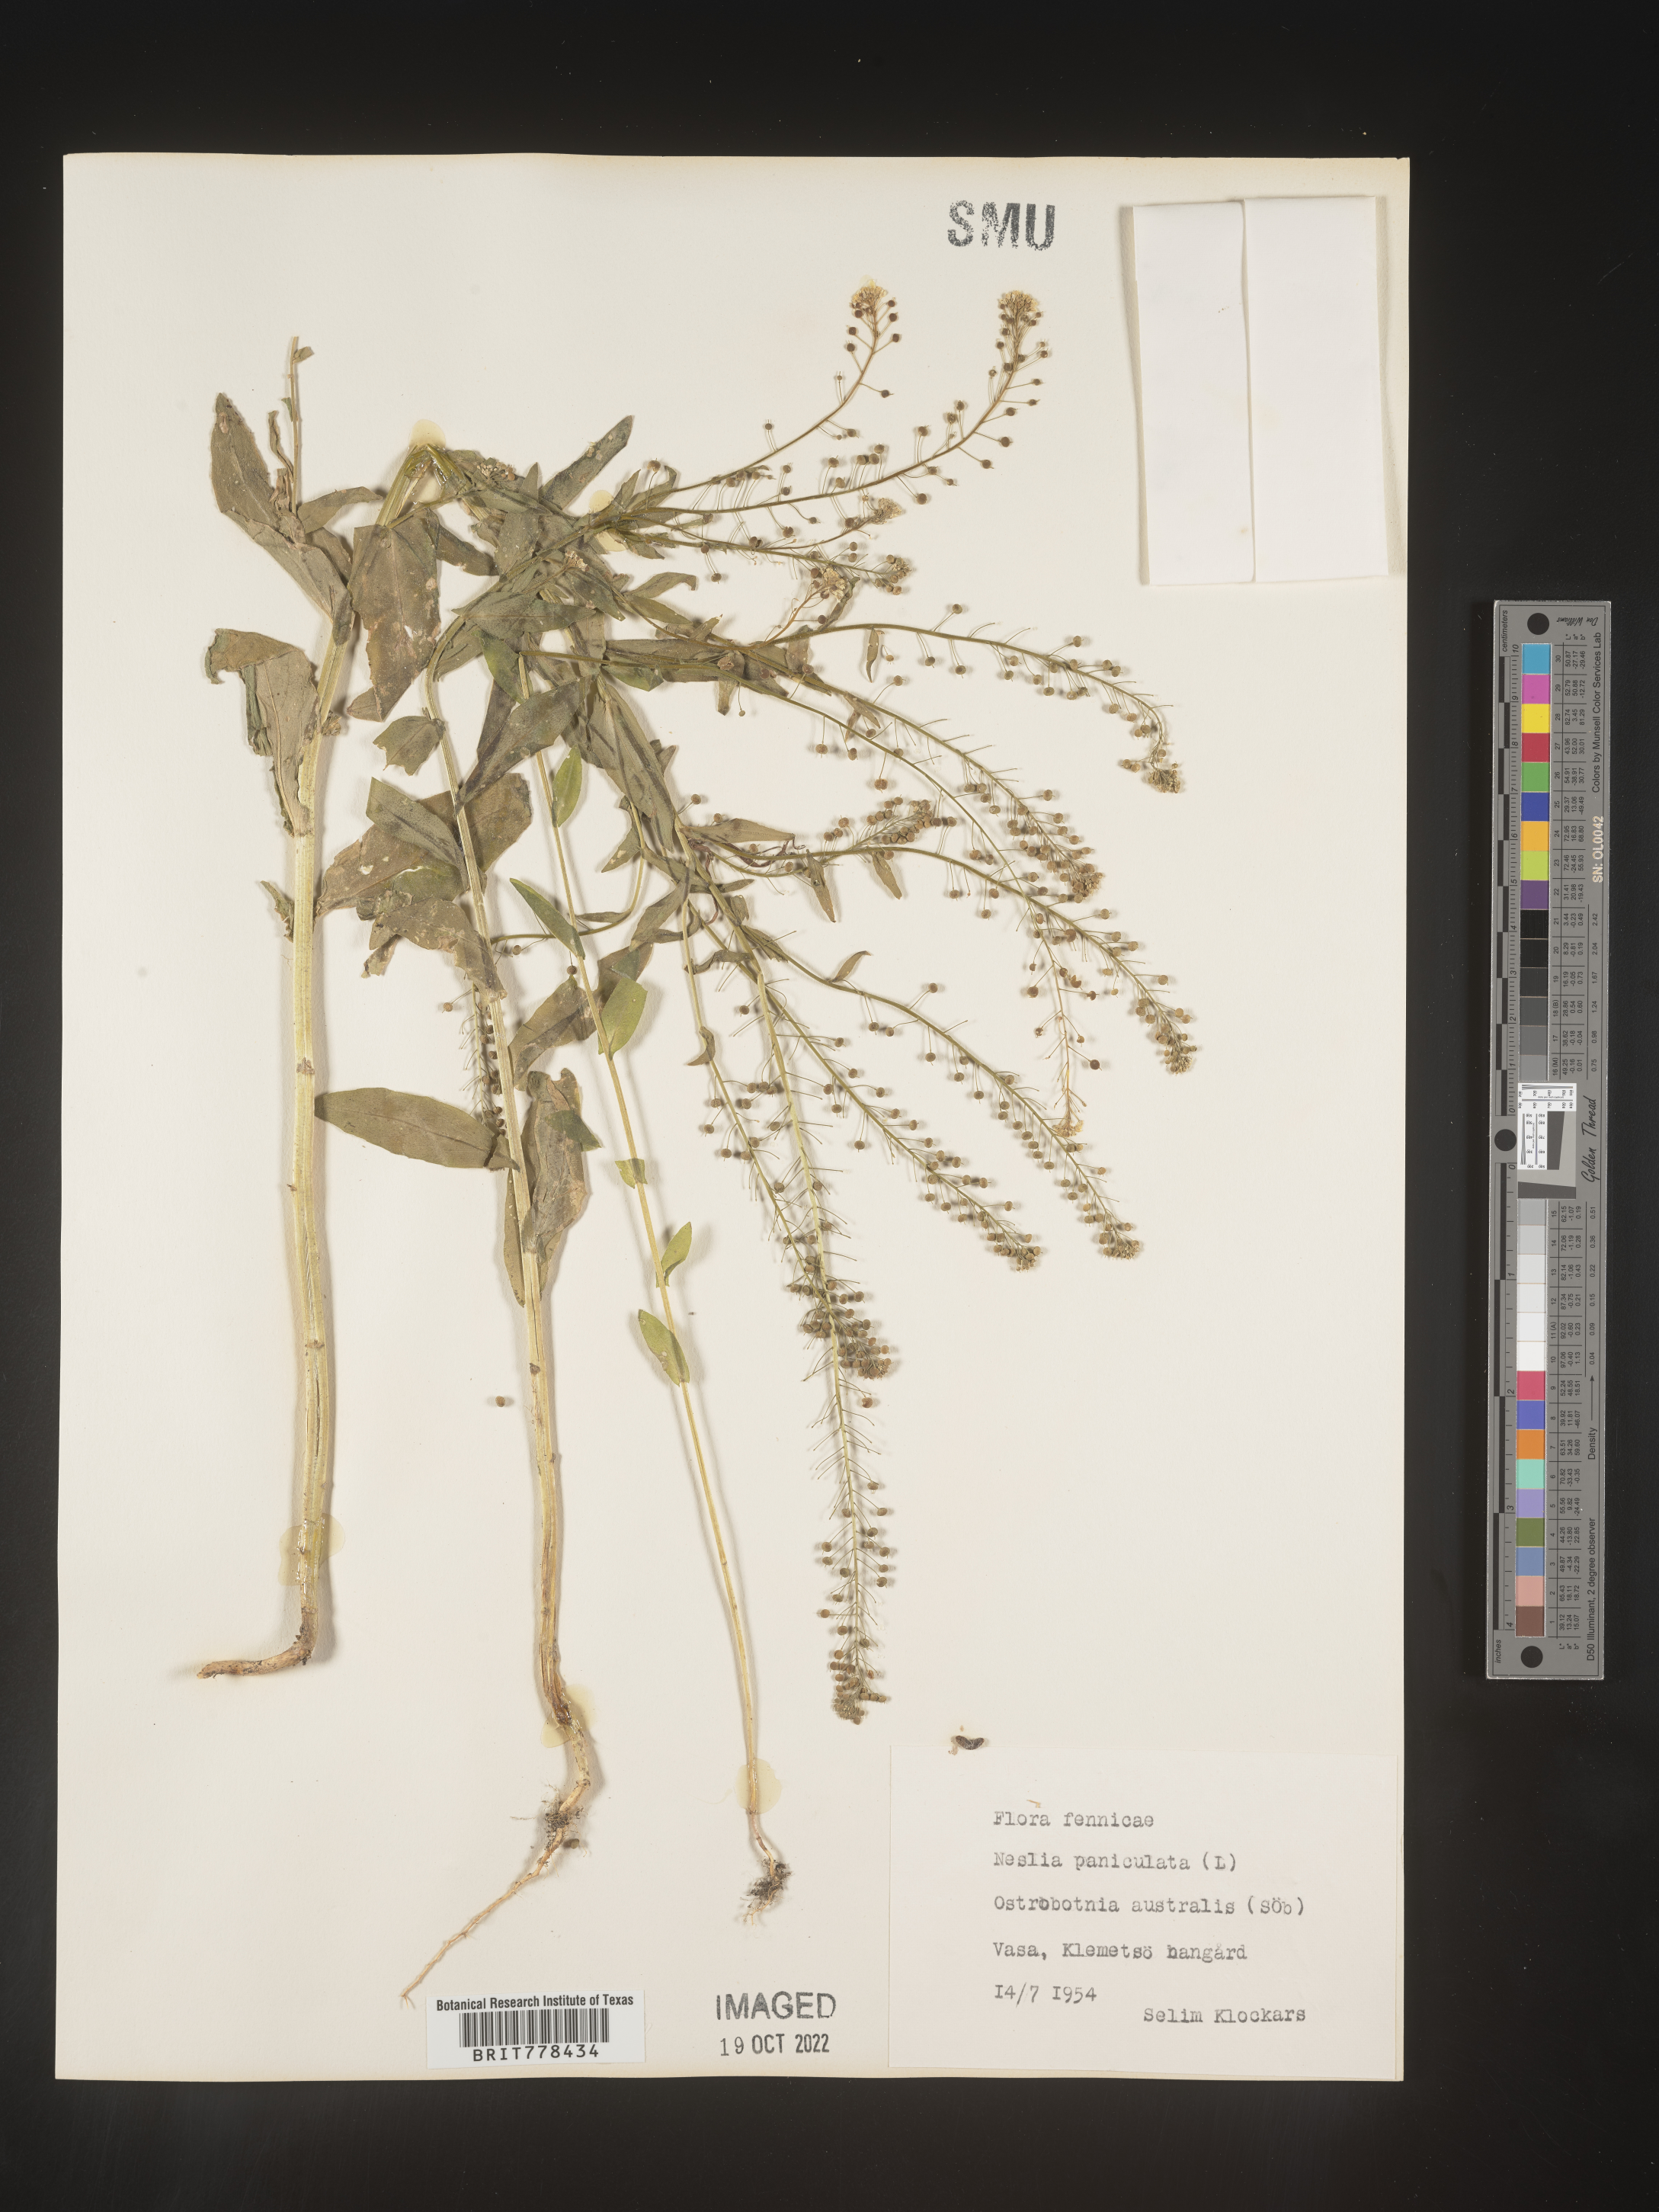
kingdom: Plantae
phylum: Tracheophyta
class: Magnoliopsida
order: Brassicales
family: Brassicaceae
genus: Neslia
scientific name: Neslia
